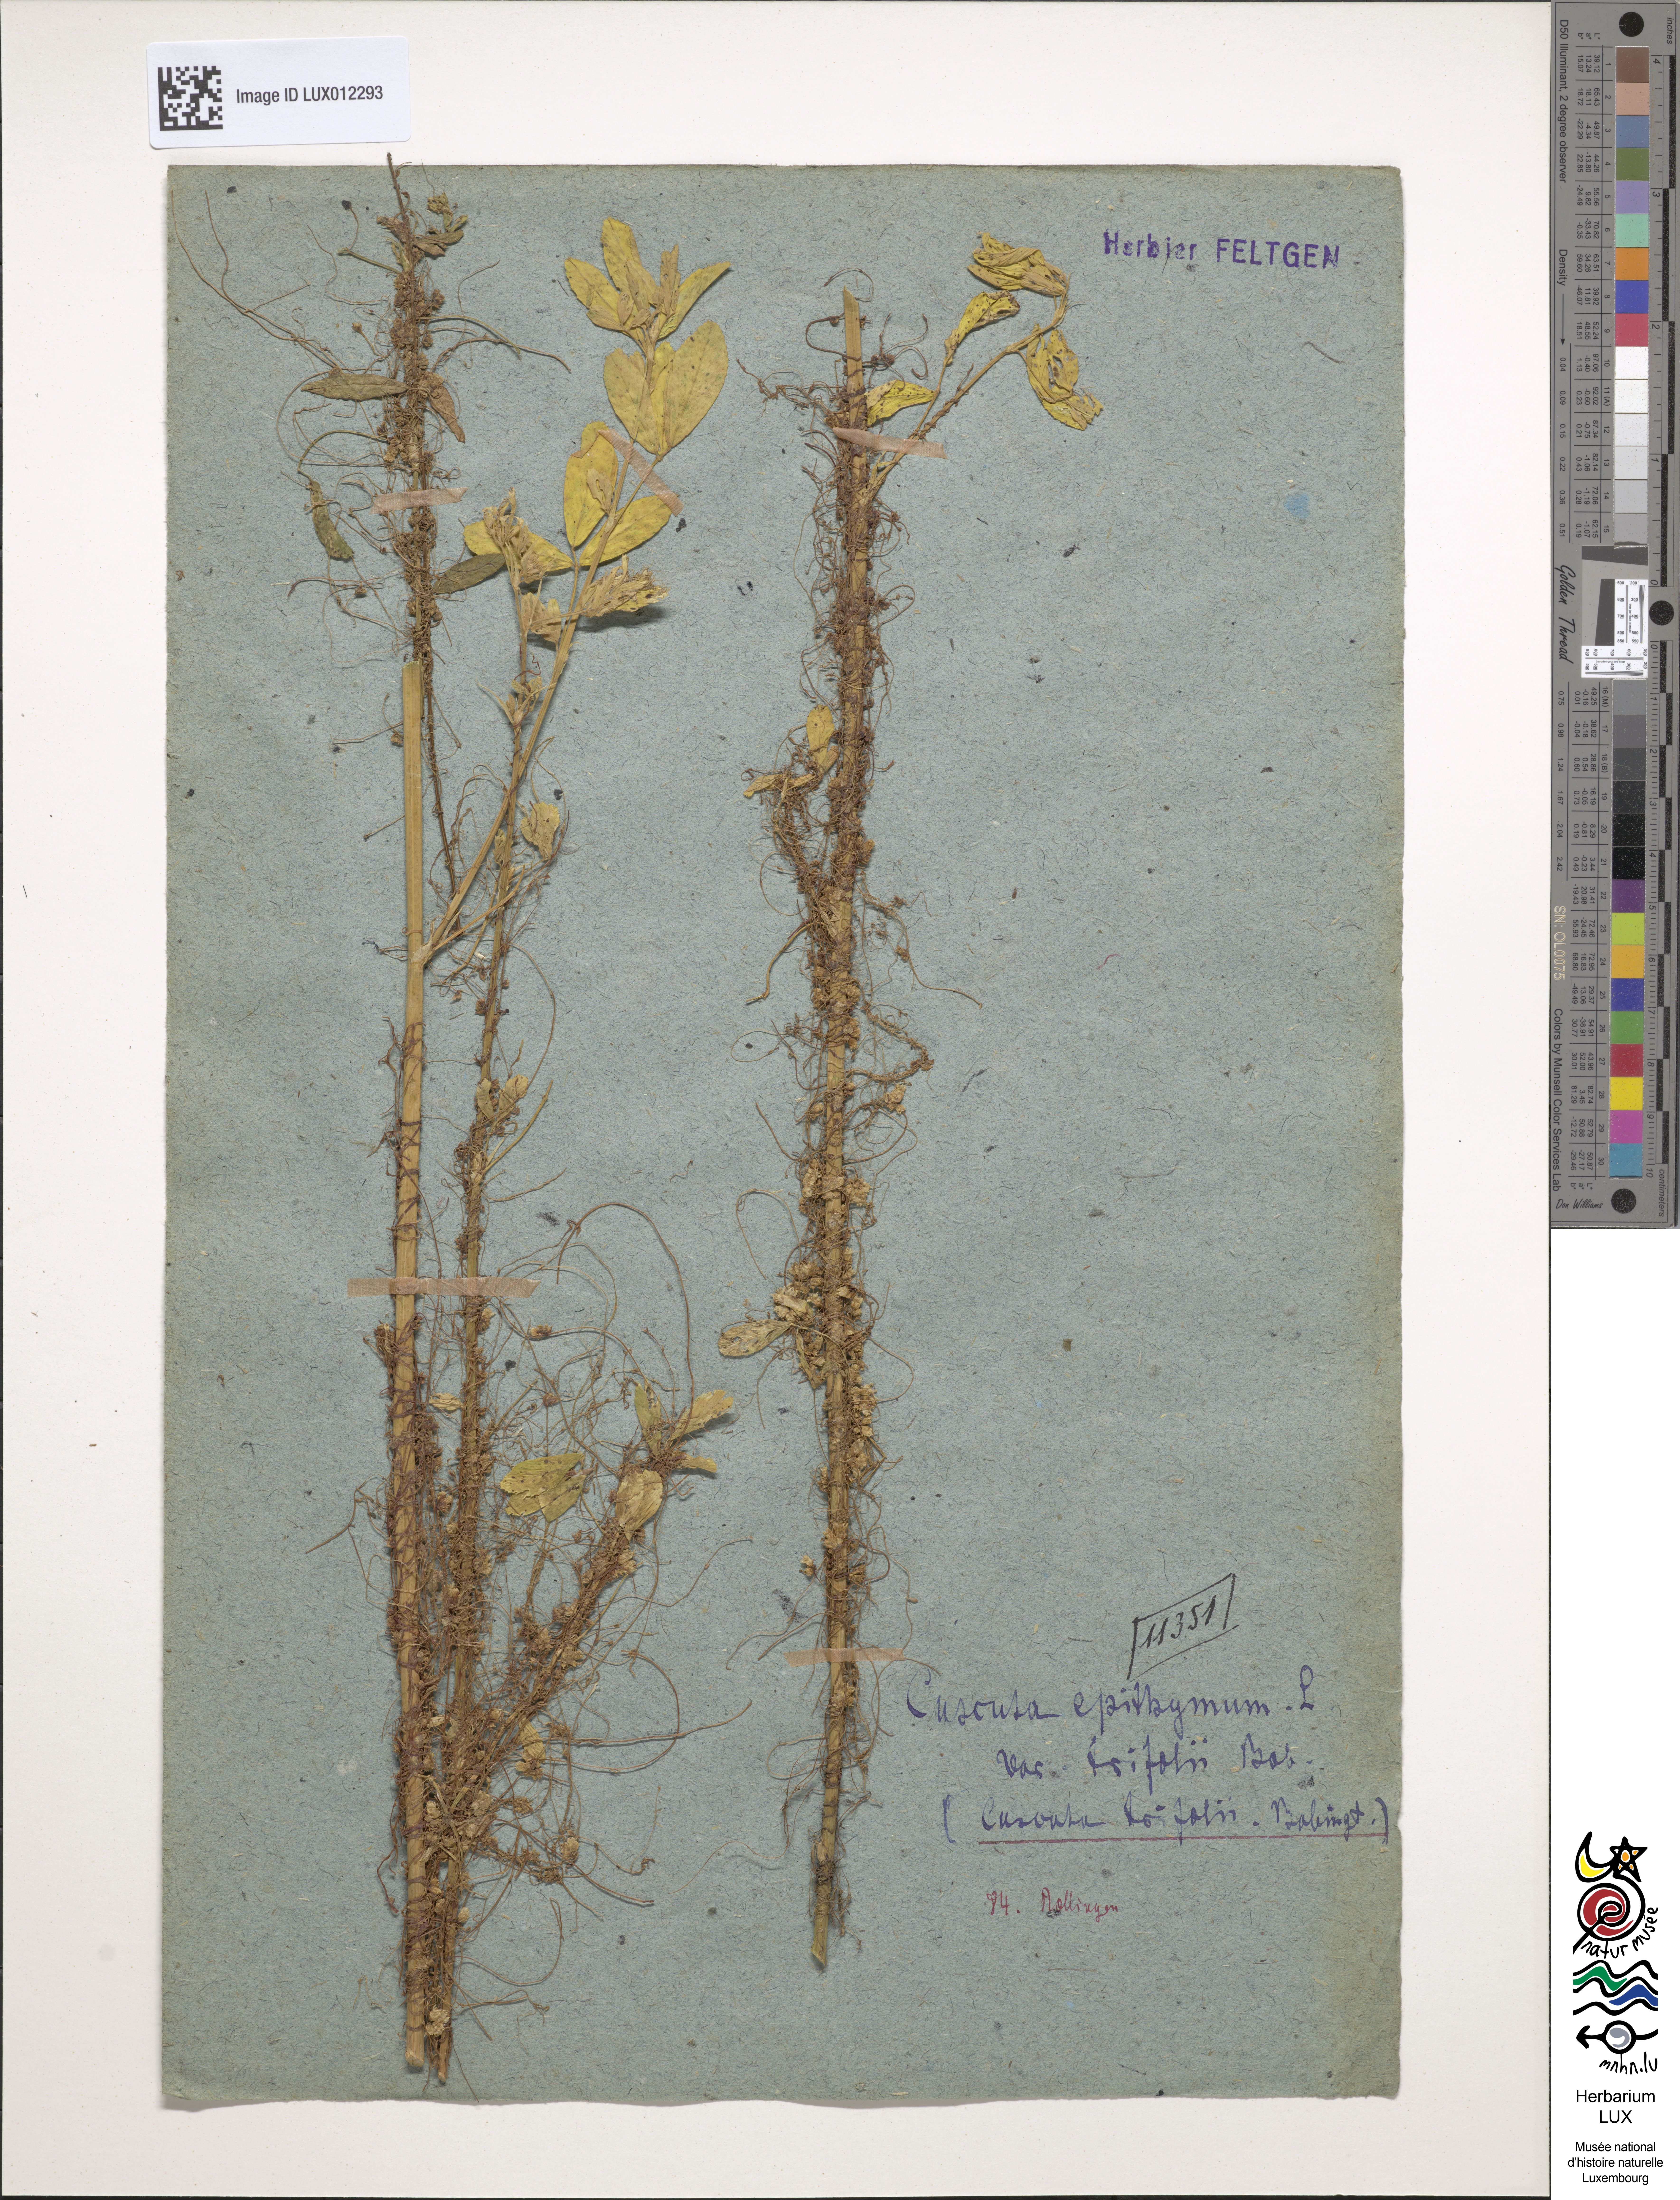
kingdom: Plantae
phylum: Tracheophyta
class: Magnoliopsida
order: Solanales
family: Convolvulaceae
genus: Cuscuta
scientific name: Cuscuta epithymum
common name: Clover dodder
